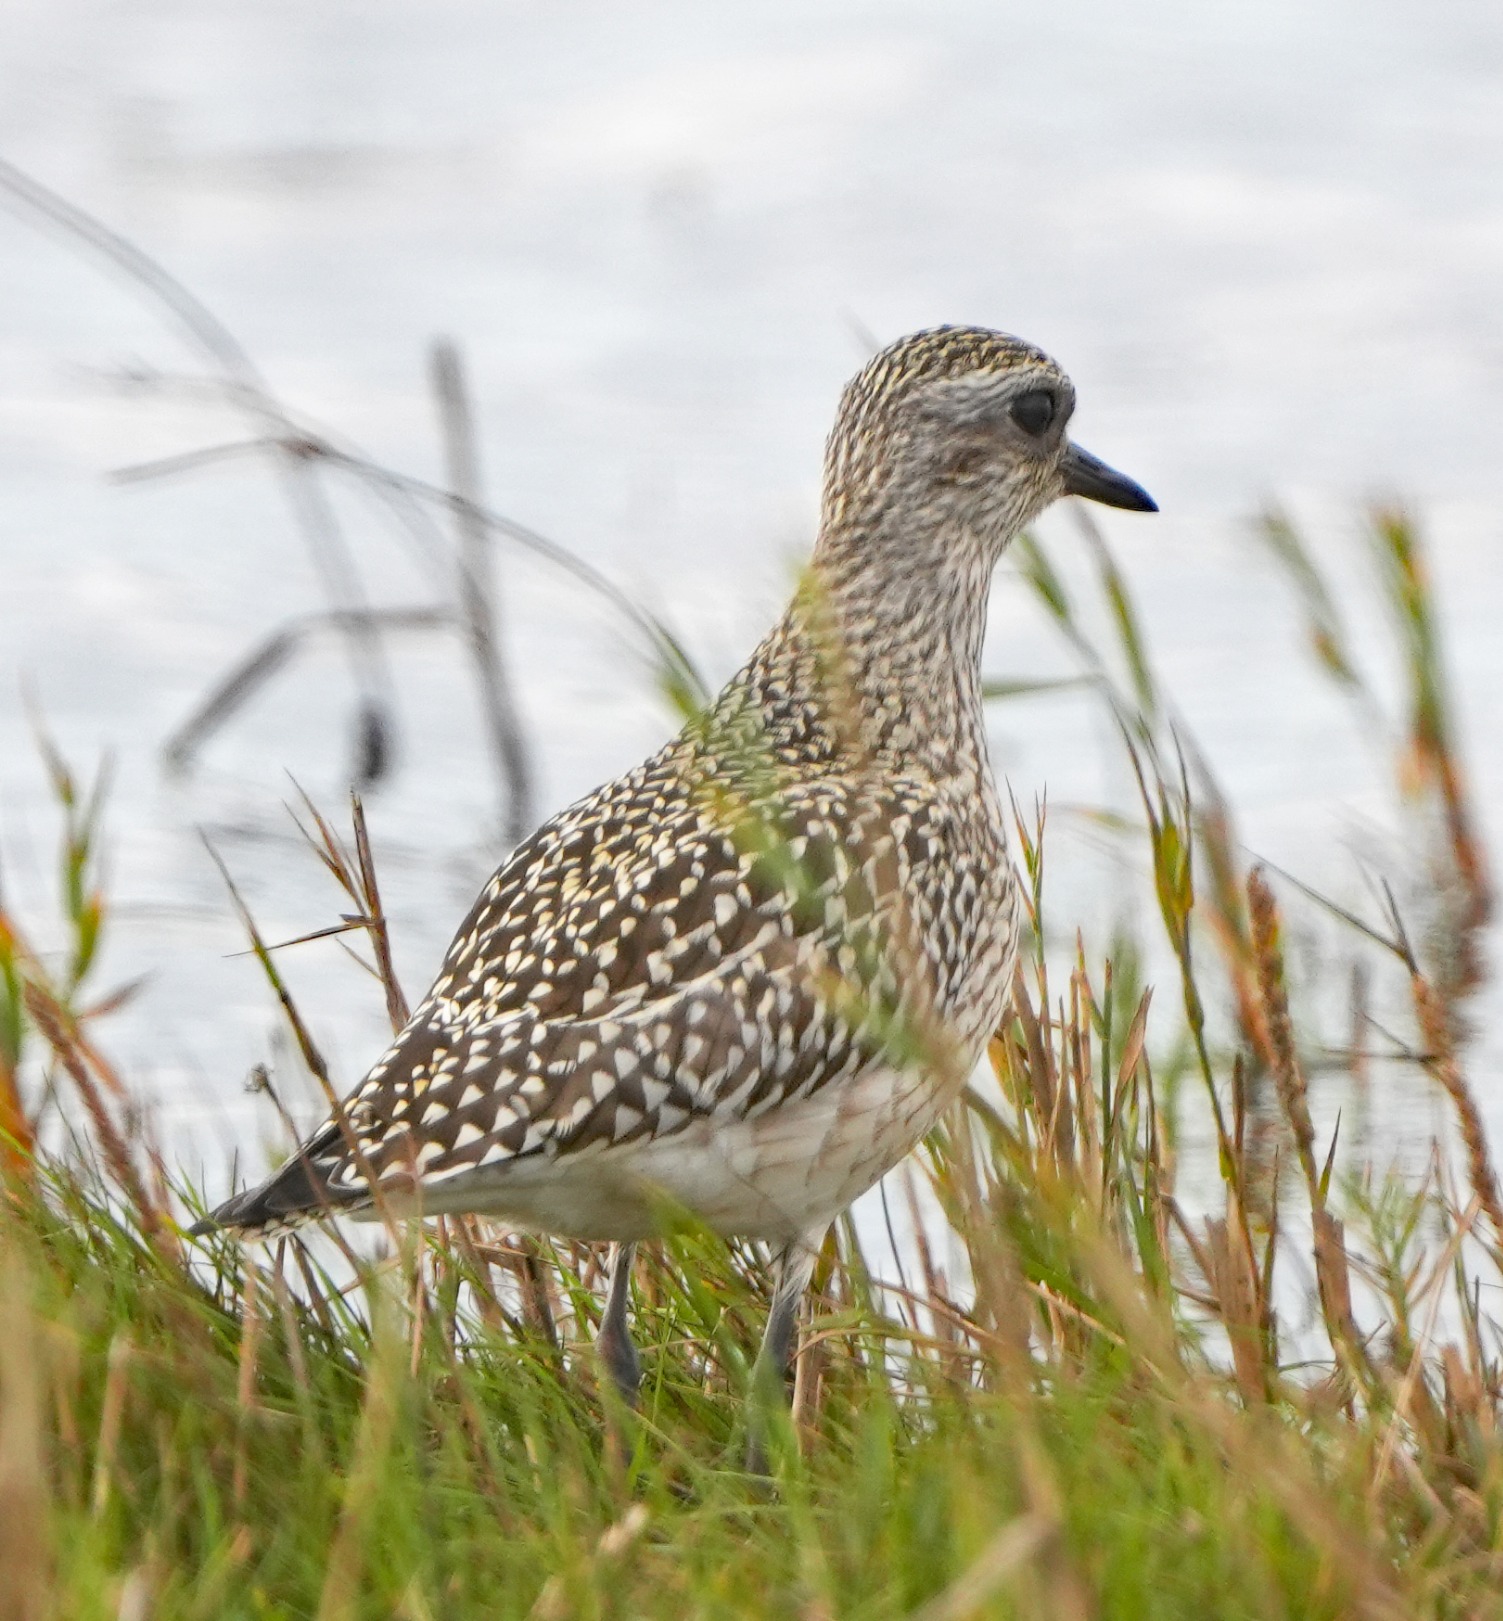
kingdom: Animalia
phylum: Chordata
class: Aves
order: Charadriiformes
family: Charadriidae
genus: Pluvialis
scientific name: Pluvialis squatarola
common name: Strandhjejle
